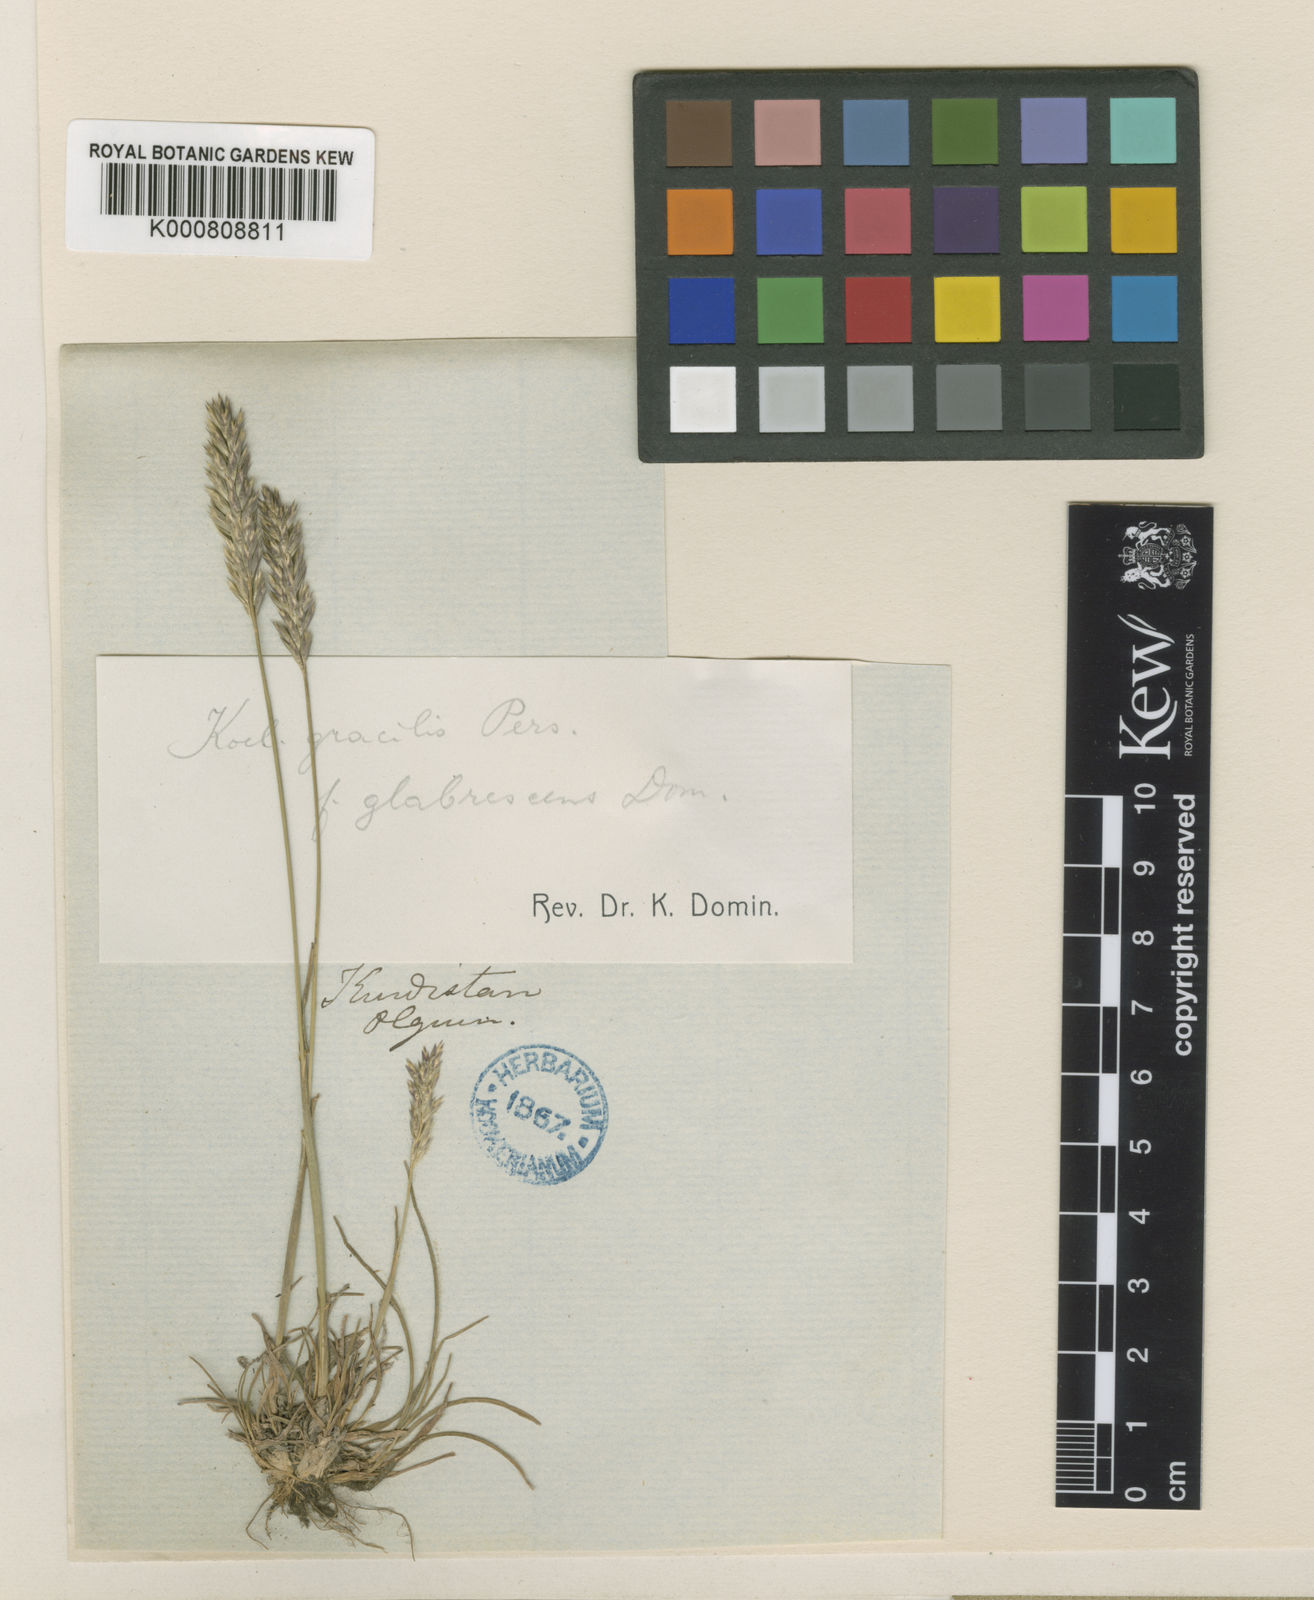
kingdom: Plantae
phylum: Tracheophyta
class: Liliopsida
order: Poales
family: Poaceae
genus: Koeleria
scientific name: Koeleria macrantha
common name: Crested hair-grass
